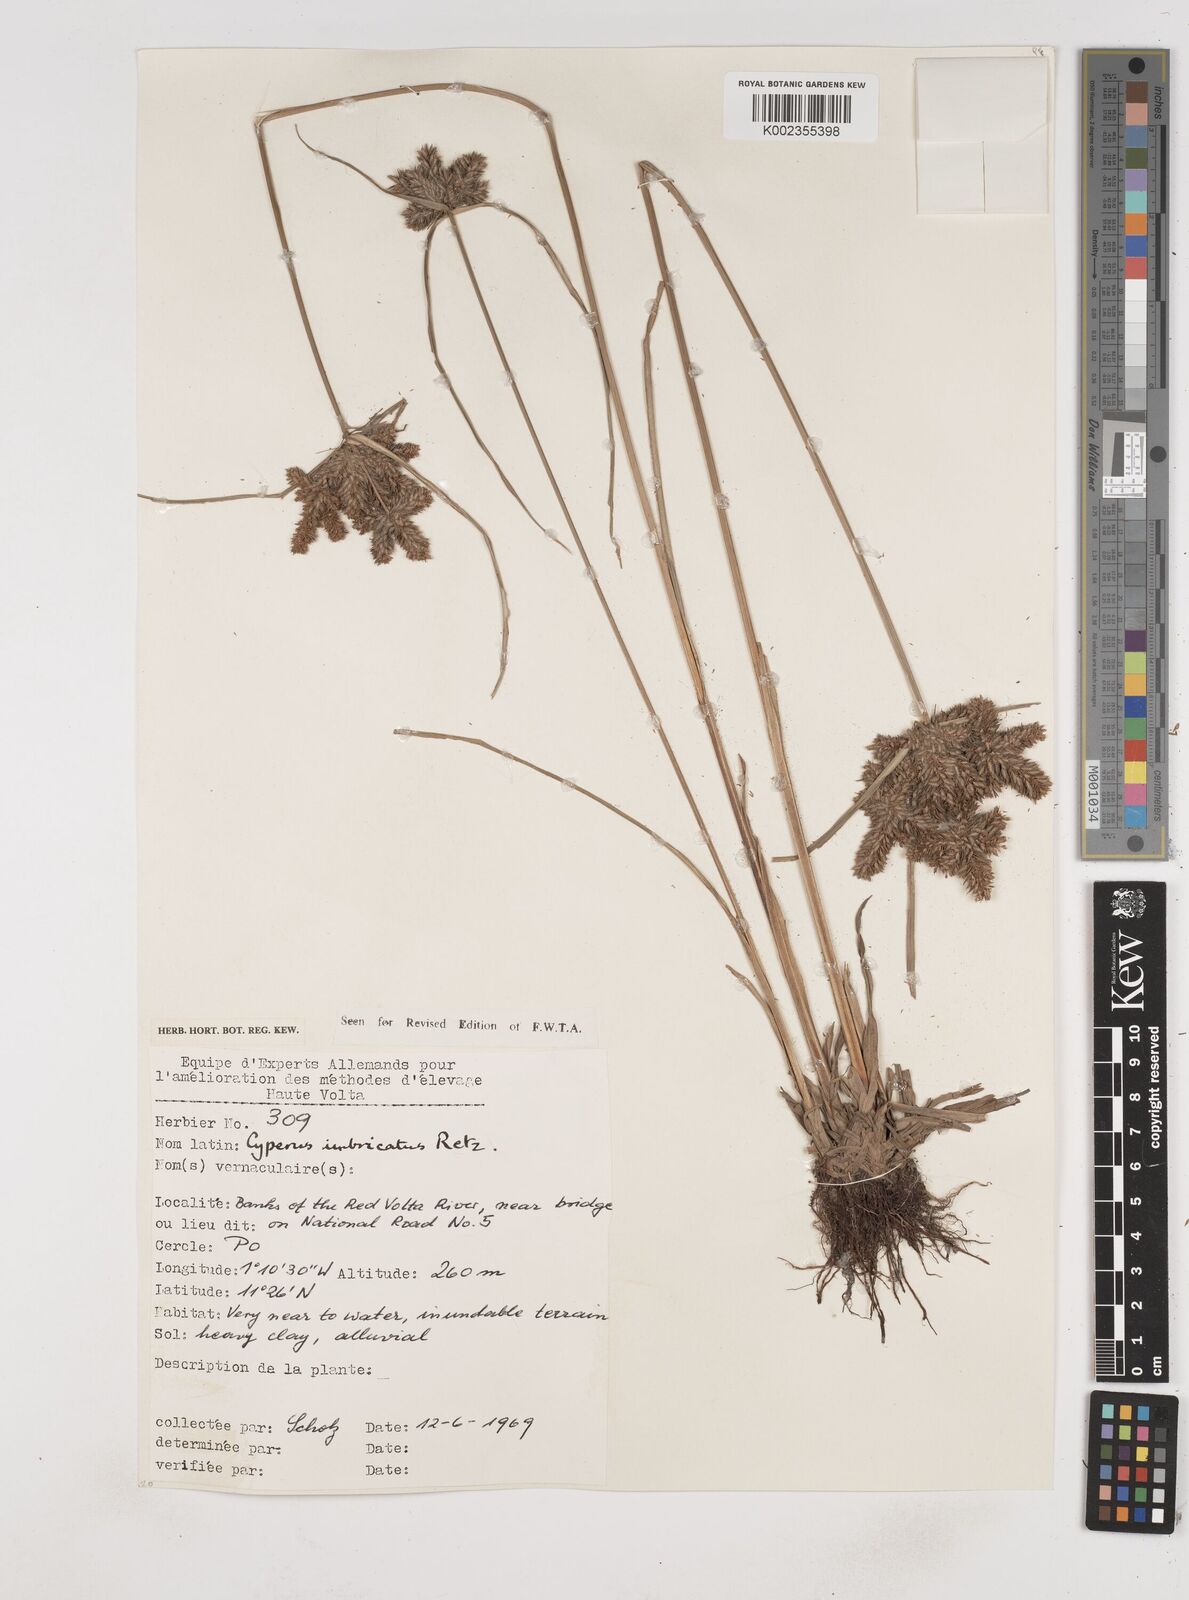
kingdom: Plantae
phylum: Tracheophyta
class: Liliopsida
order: Poales
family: Cyperaceae
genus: Cyperus
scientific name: Cyperus imbricatus
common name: Shingle flatsedge
